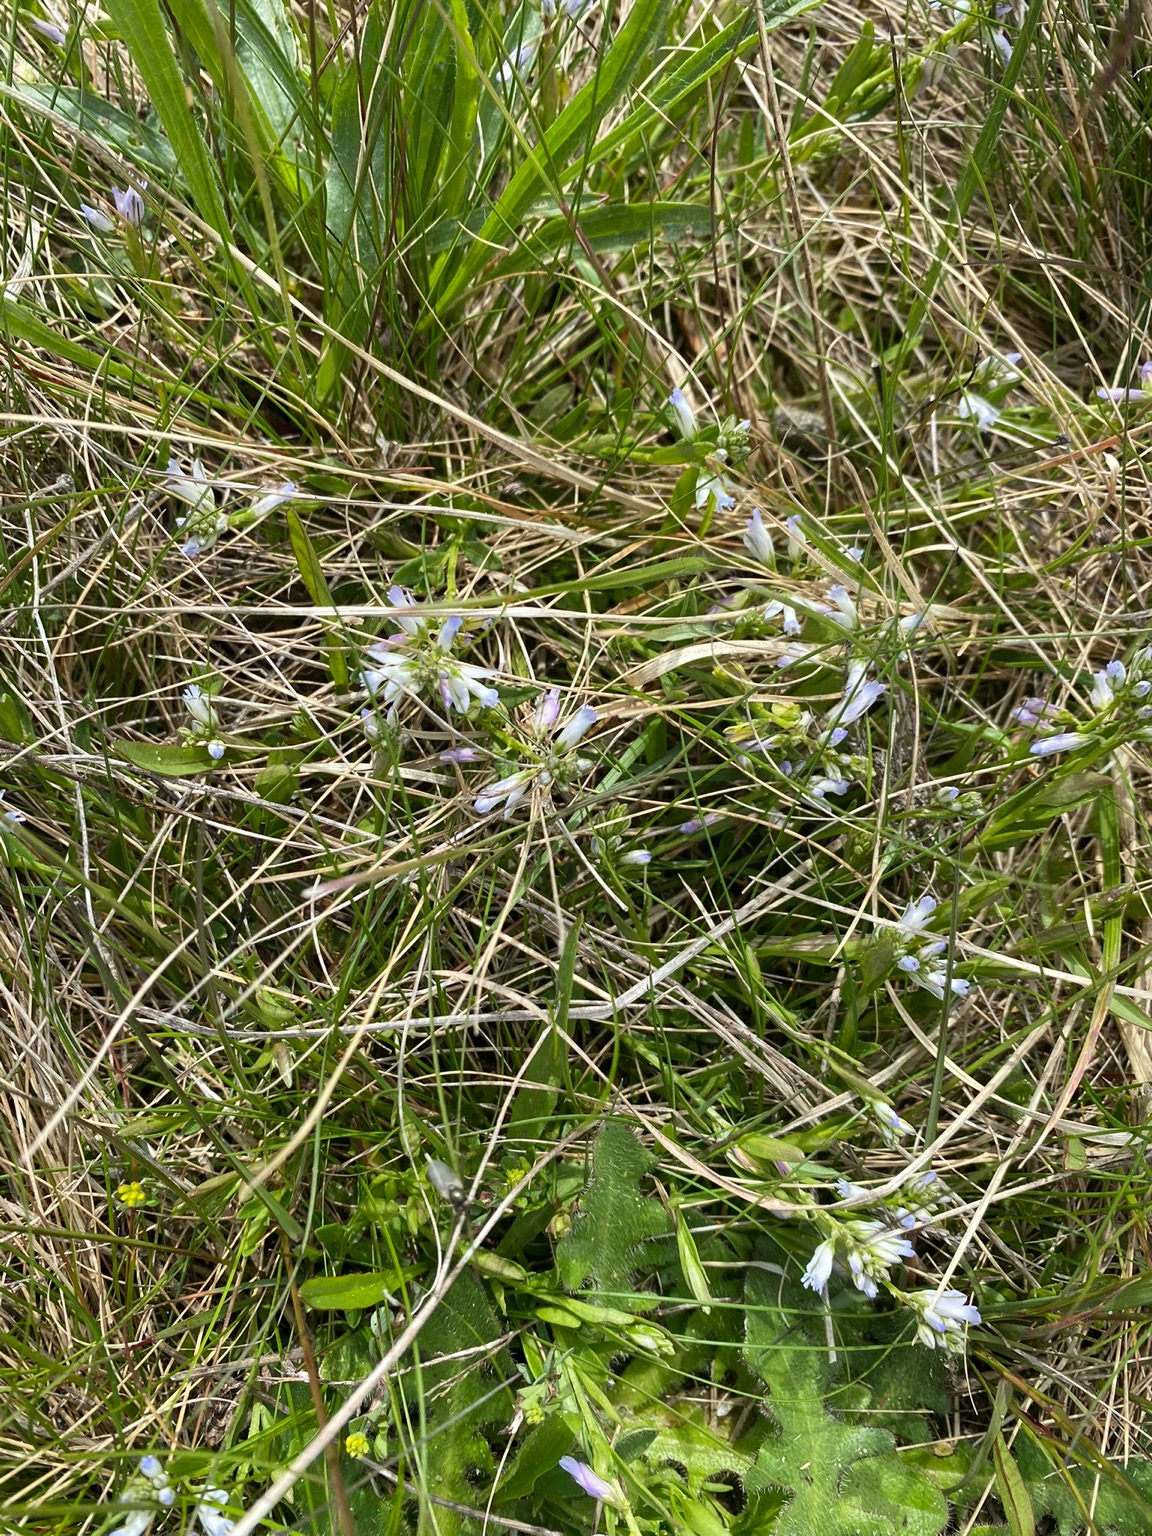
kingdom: Plantae
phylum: Tracheophyta
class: Magnoliopsida
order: Fabales
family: Polygalaceae
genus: Polygala
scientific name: Polygala vulgaris
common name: Almindelig mælkeurt
